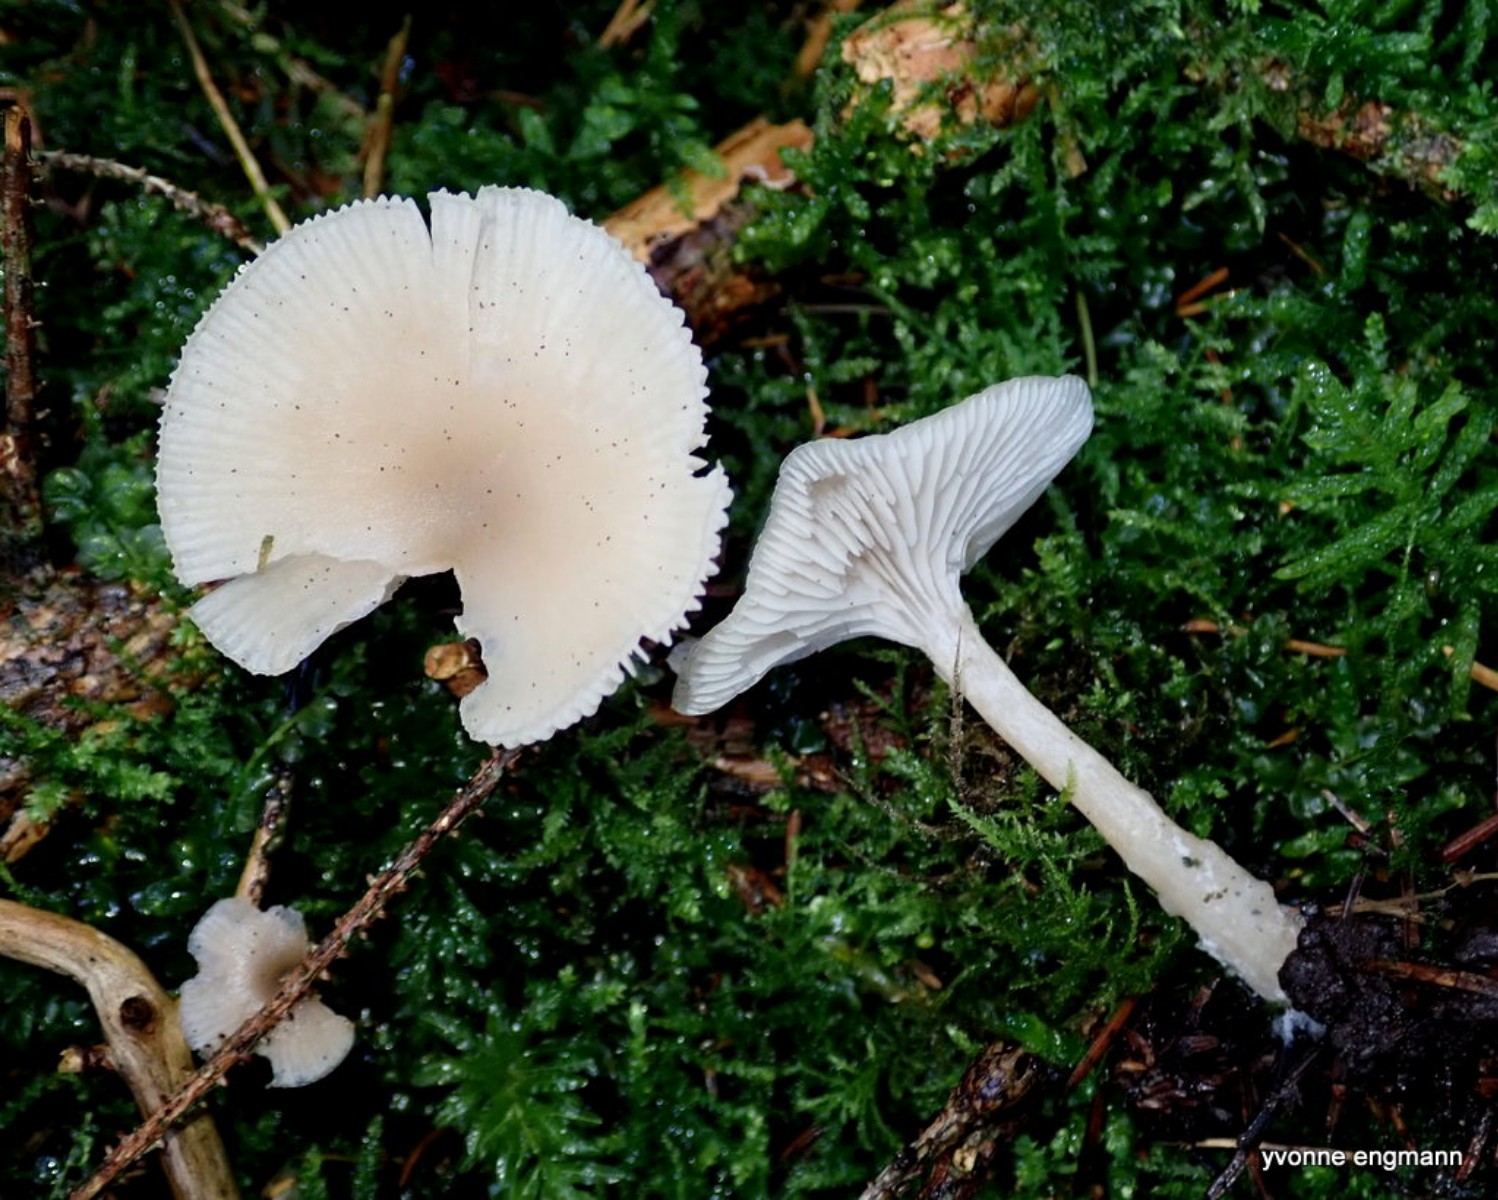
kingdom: Fungi
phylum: Basidiomycota
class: Agaricomycetes
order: Agaricales
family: Tricholomataceae
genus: Clitocybe
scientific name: Clitocybe
